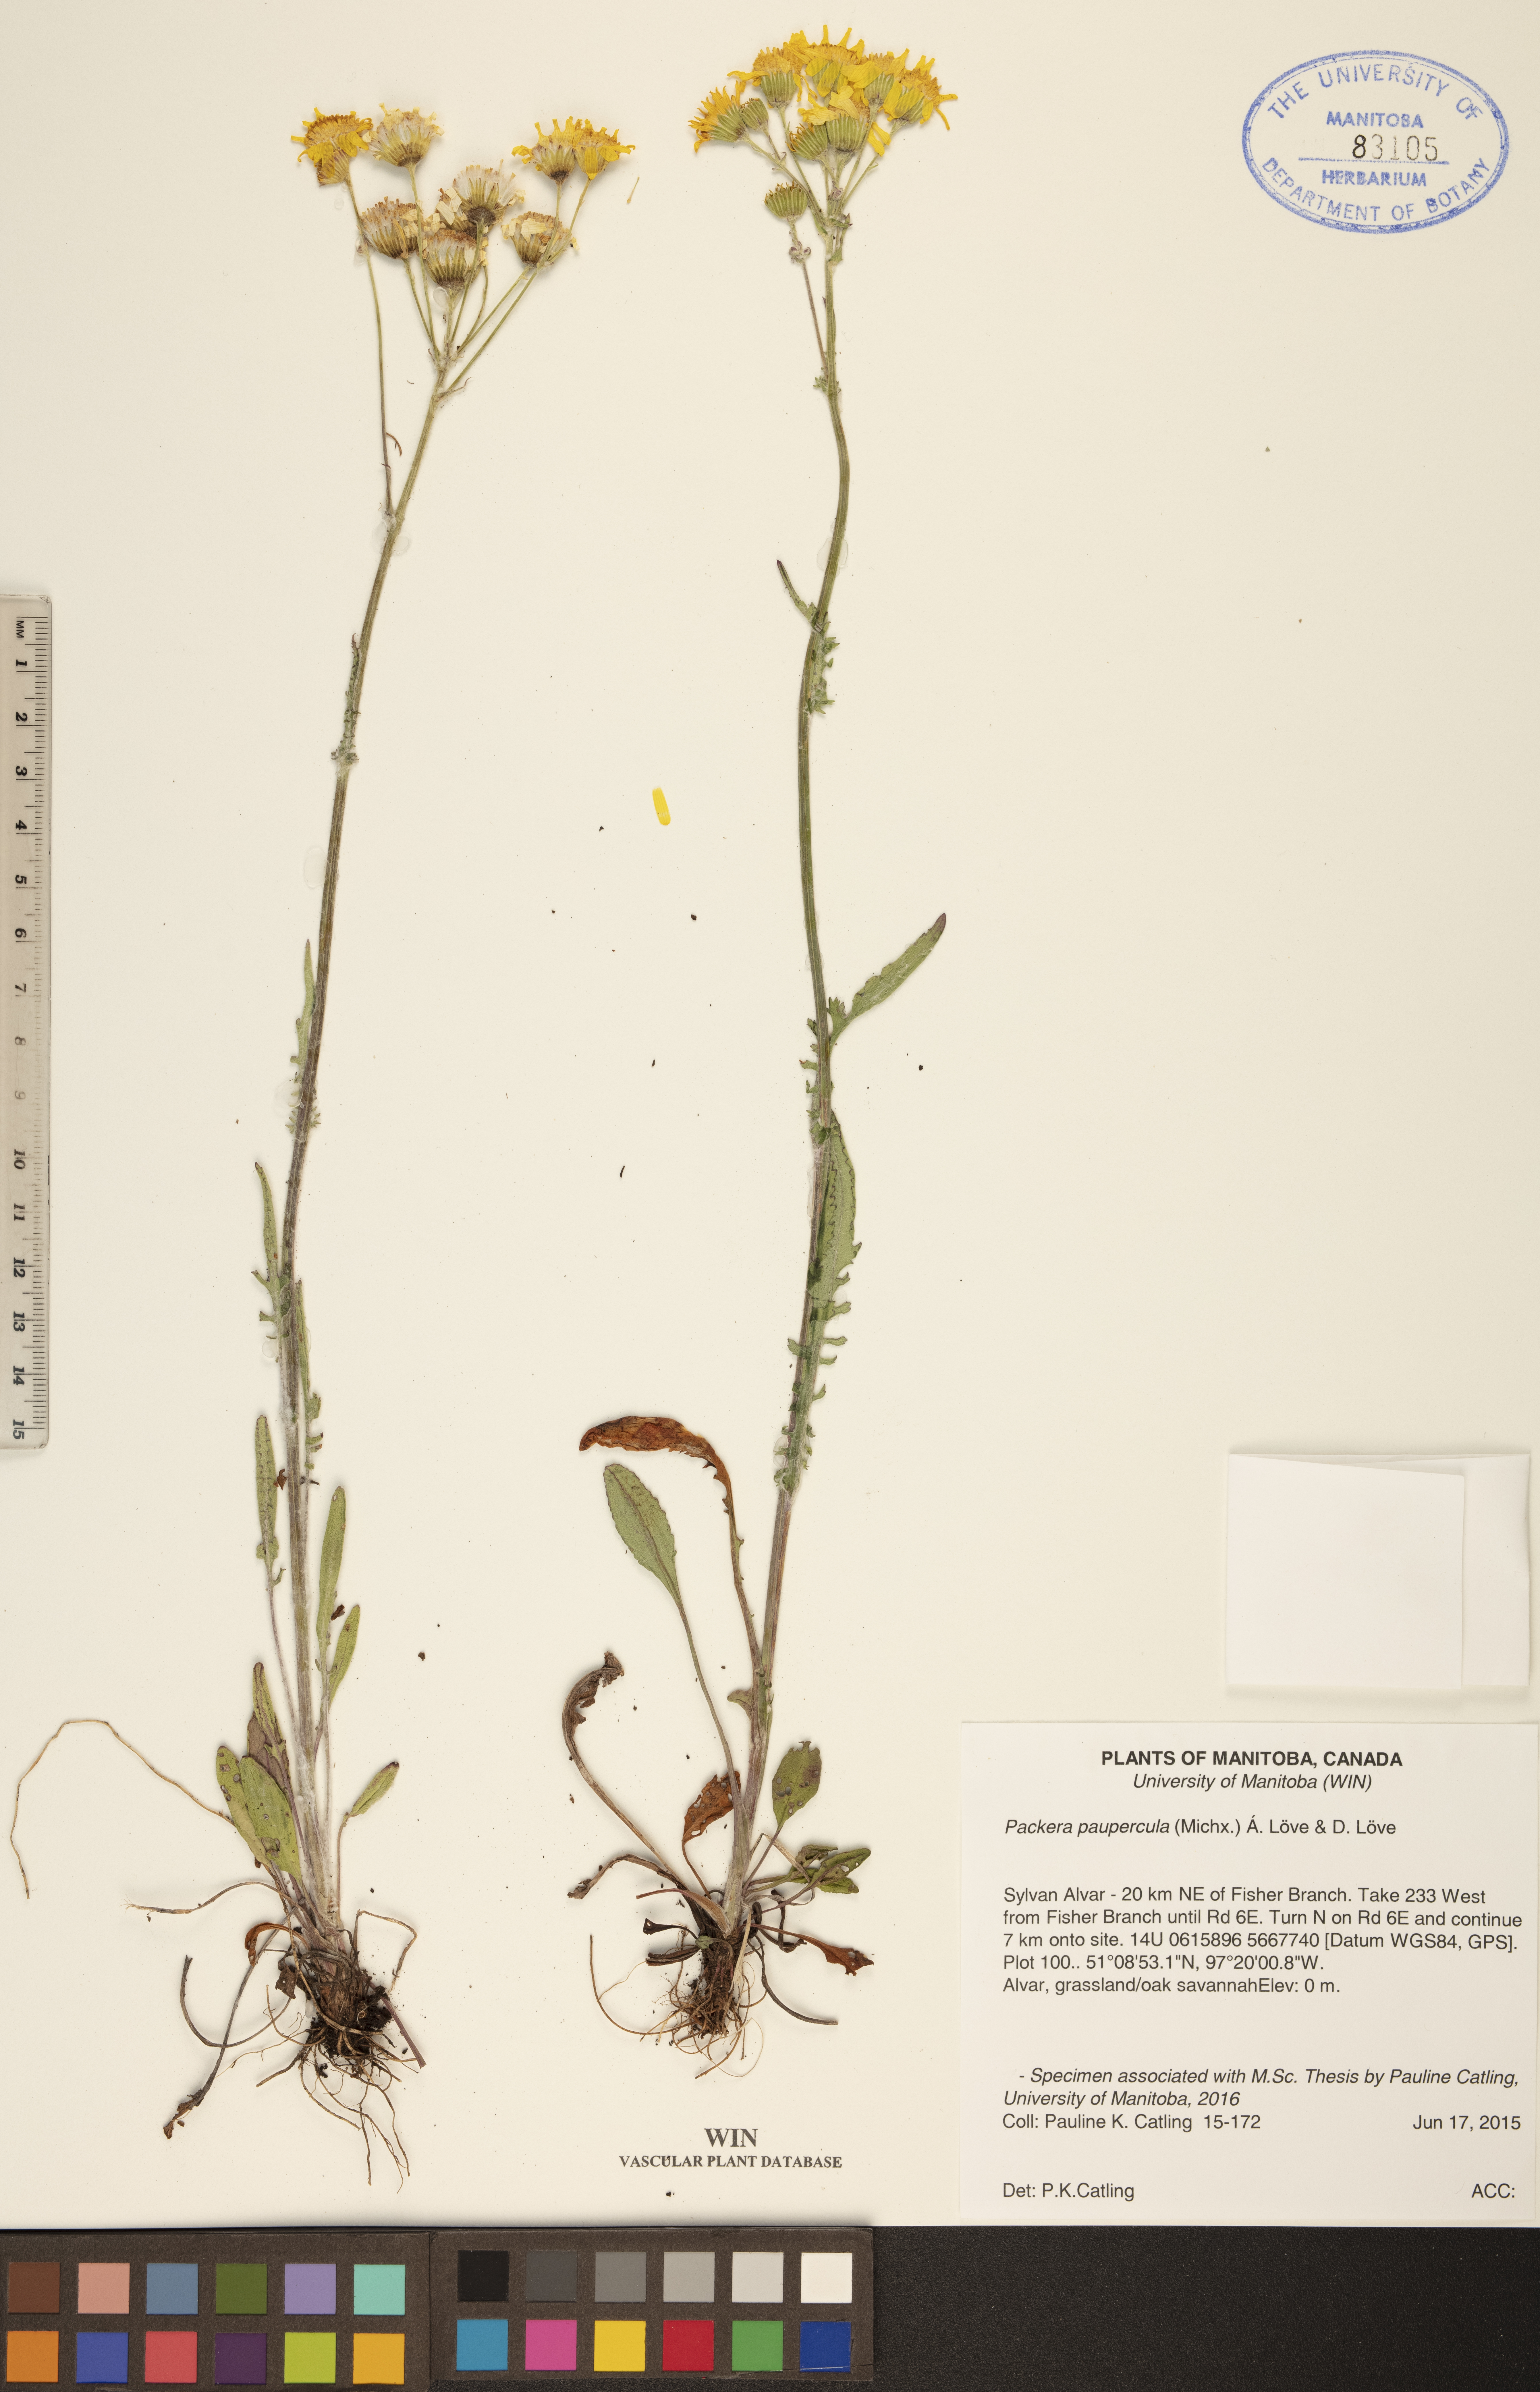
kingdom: Plantae
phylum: Tracheophyta
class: Magnoliopsida
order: Asterales
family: Asteraceae
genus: Packera
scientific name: Packera paupercula
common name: Balsam groundsel
